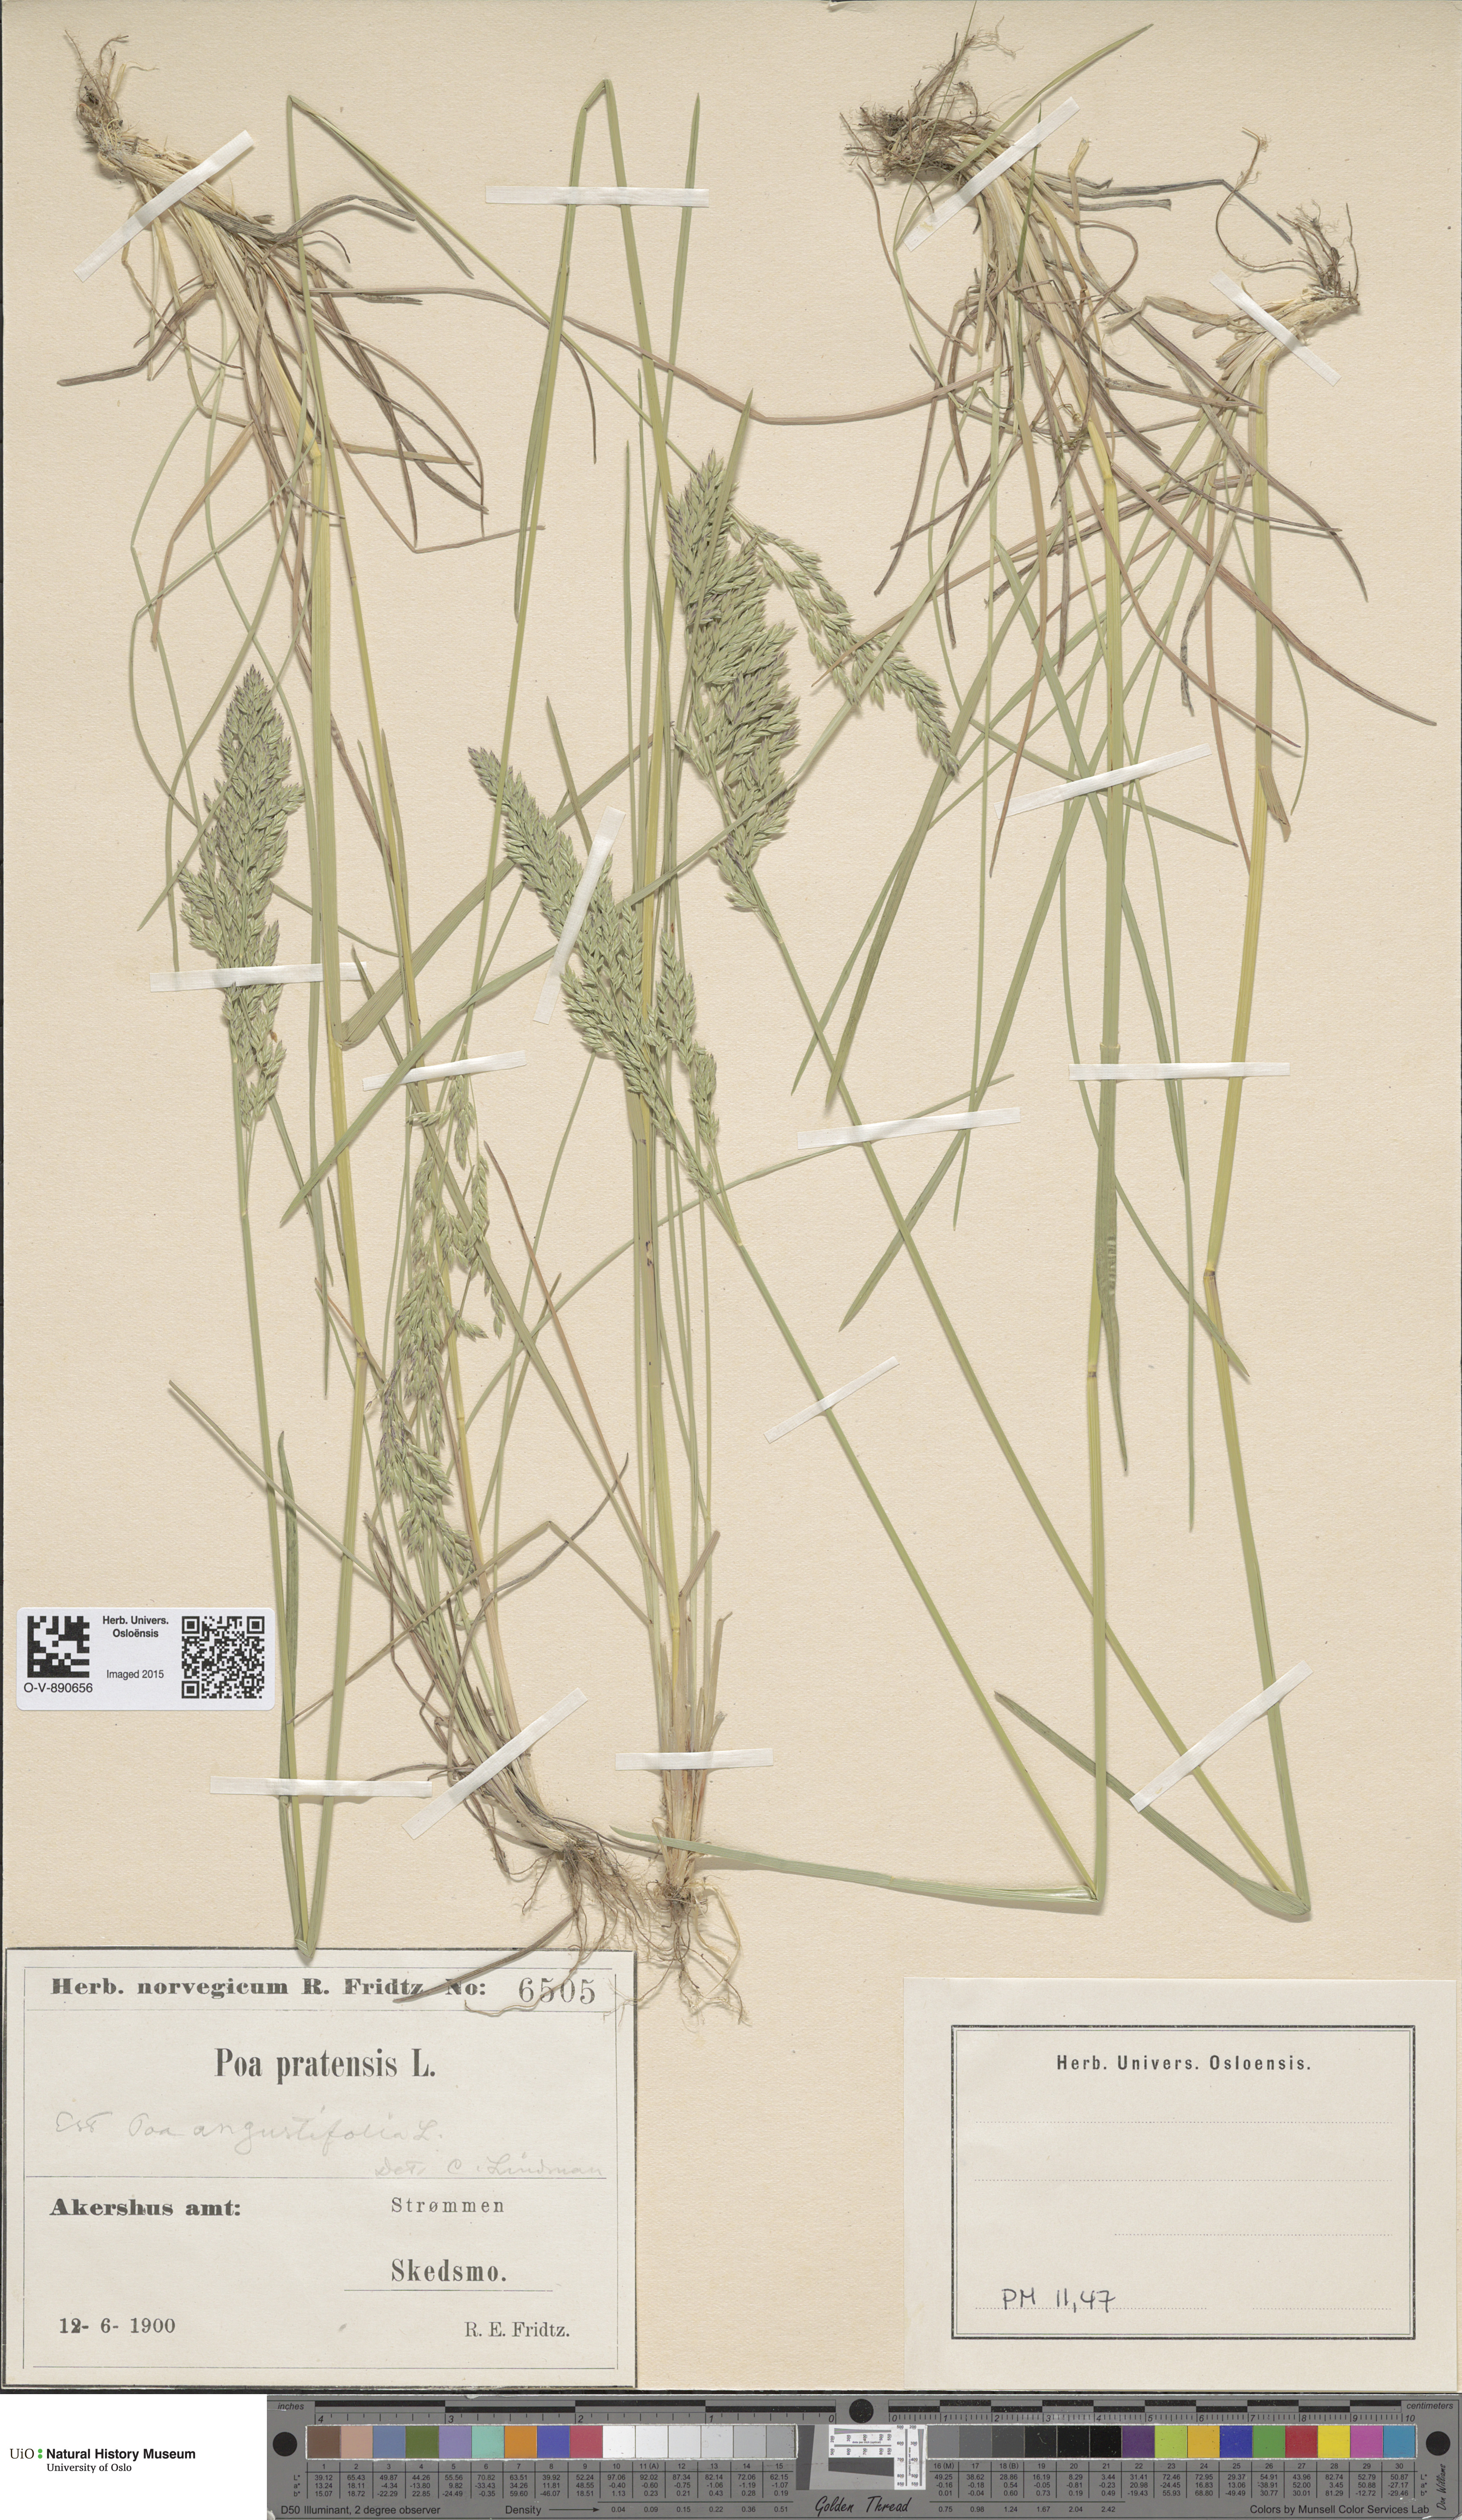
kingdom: Plantae
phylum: Tracheophyta
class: Liliopsida
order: Poales
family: Poaceae
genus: Poa
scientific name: Poa angustifolia
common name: Narrow-leaved meadow-grass
